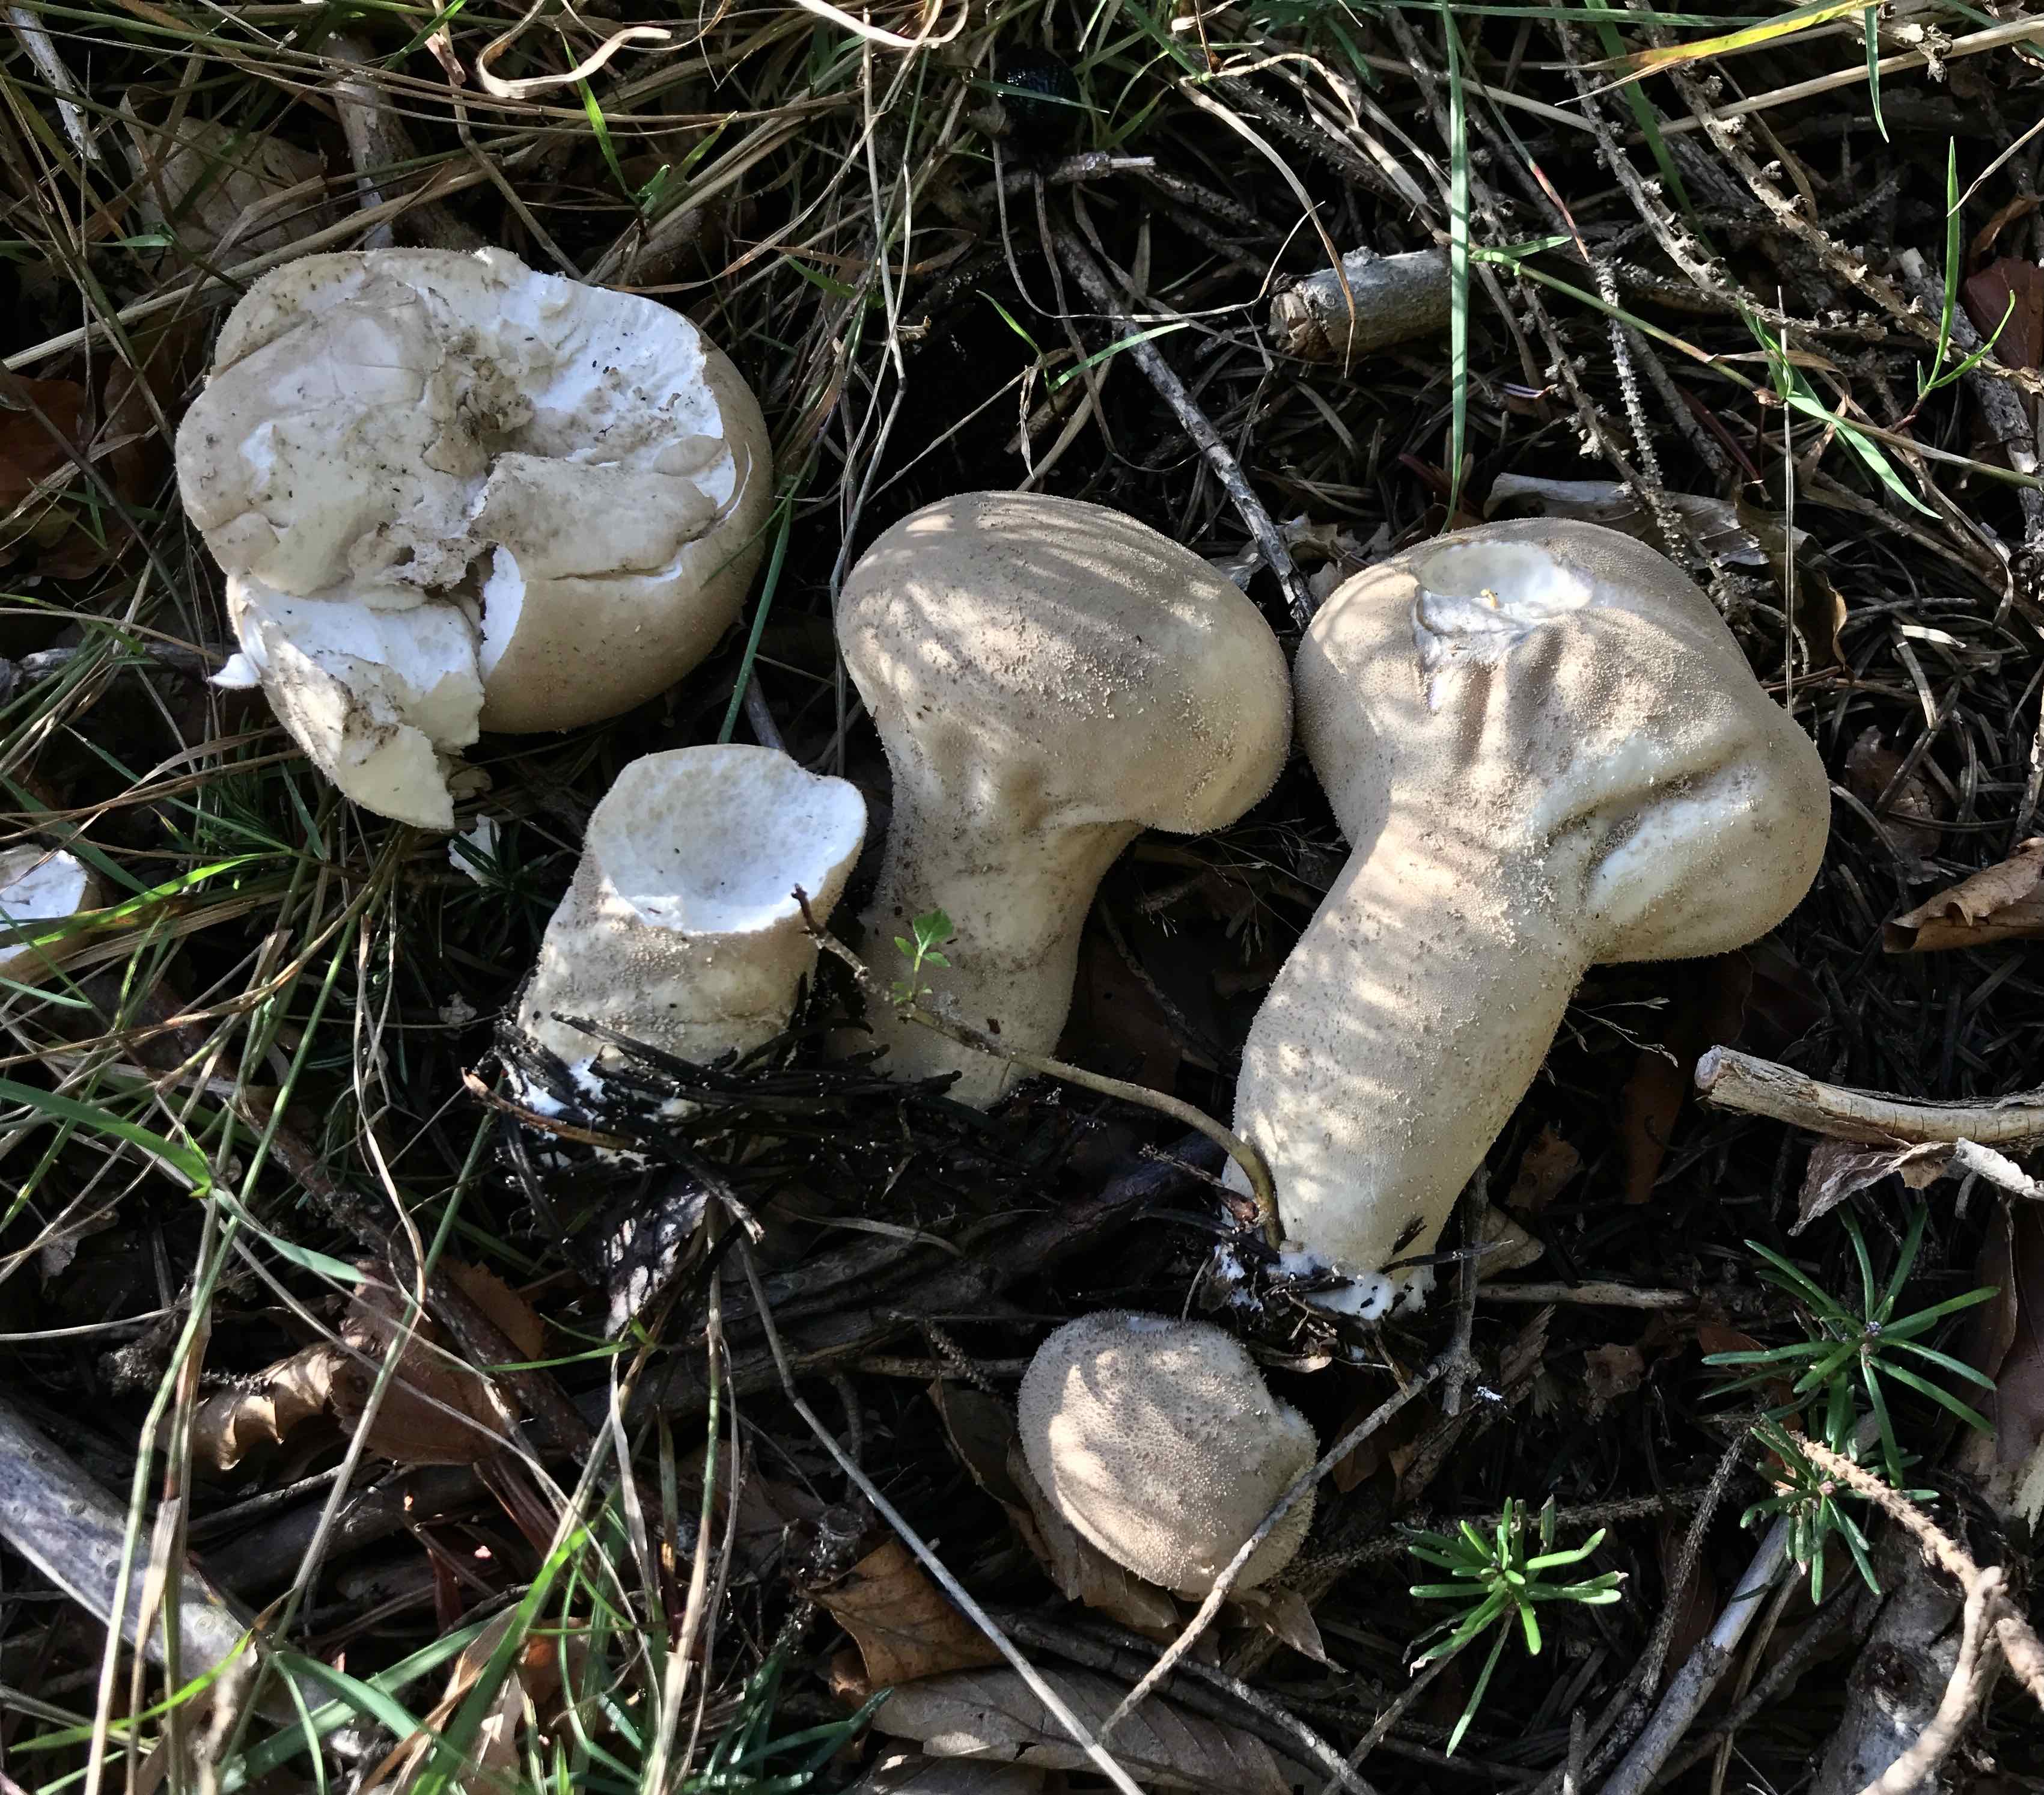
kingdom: Fungi
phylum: Basidiomycota
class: Agaricomycetes
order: Agaricales
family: Lycoperdaceae
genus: Lycoperdon
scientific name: Lycoperdon excipuliforme
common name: højstokket støvbold
